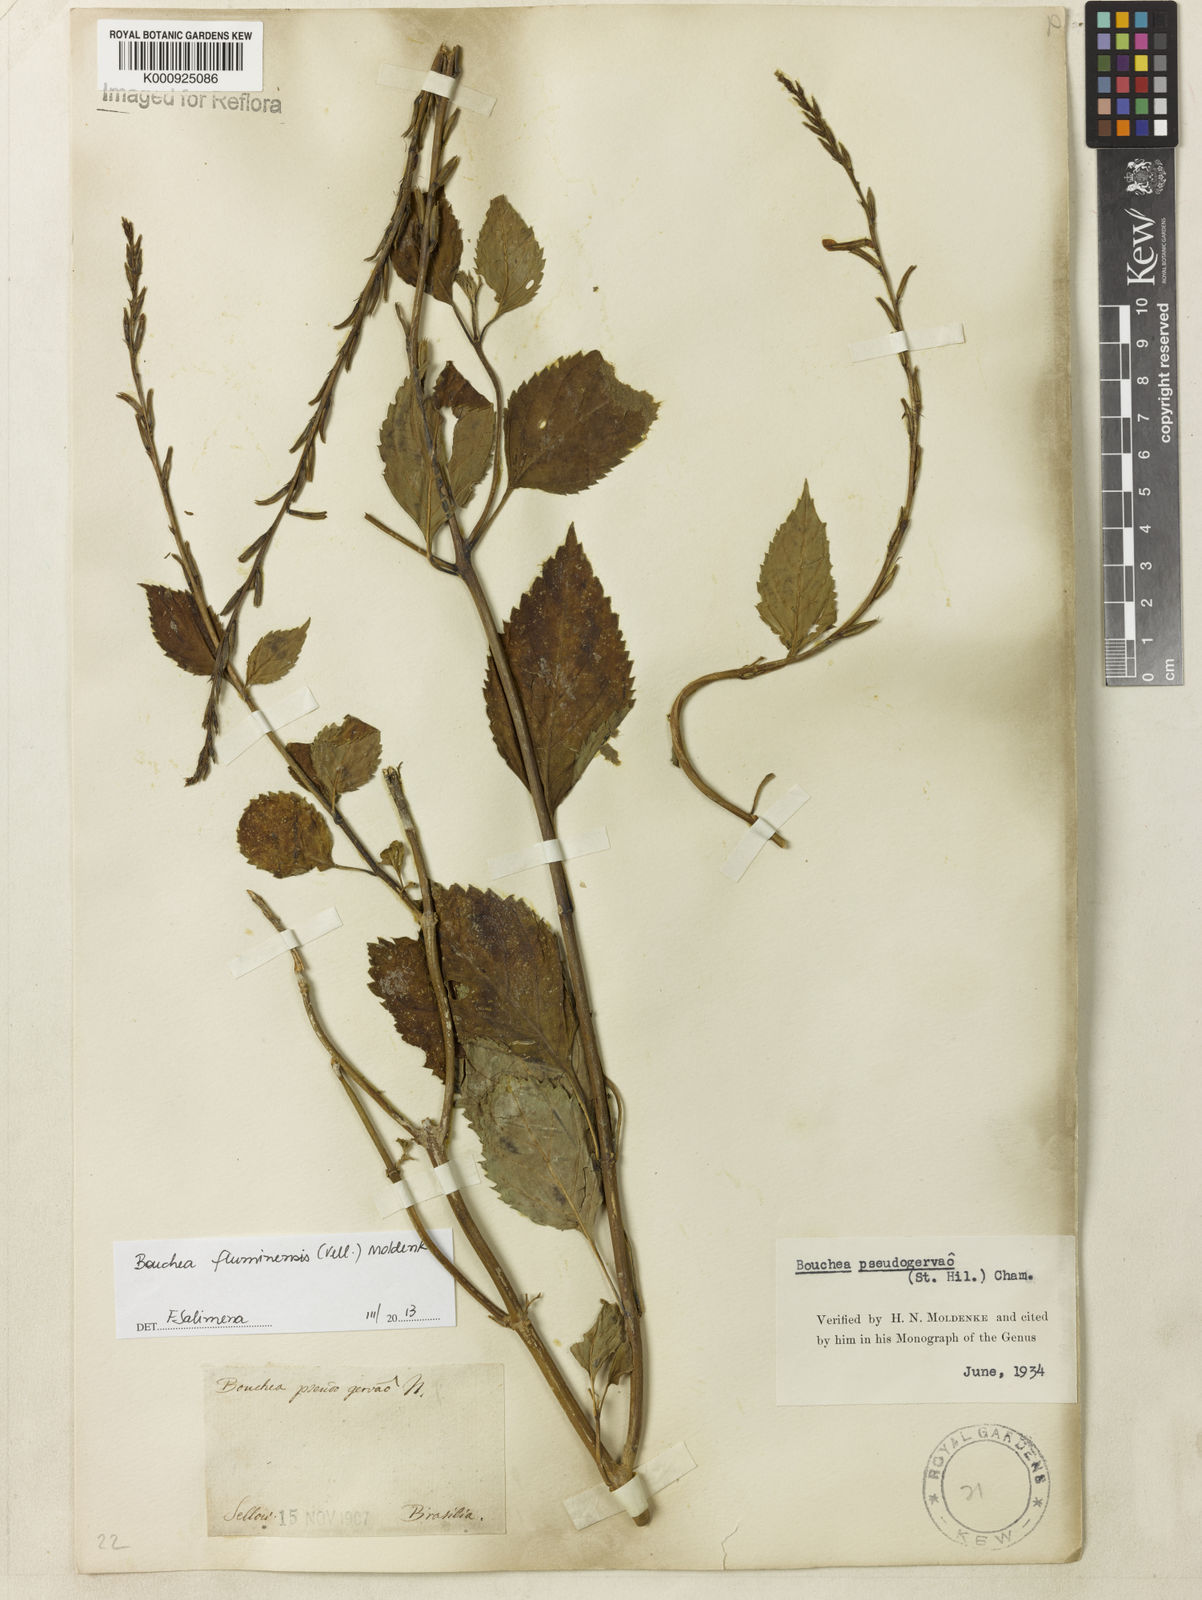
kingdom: Plantae
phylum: Tracheophyta
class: Magnoliopsida
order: Lamiales
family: Verbenaceae
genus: Bouchea
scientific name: Bouchea pseudogervao
